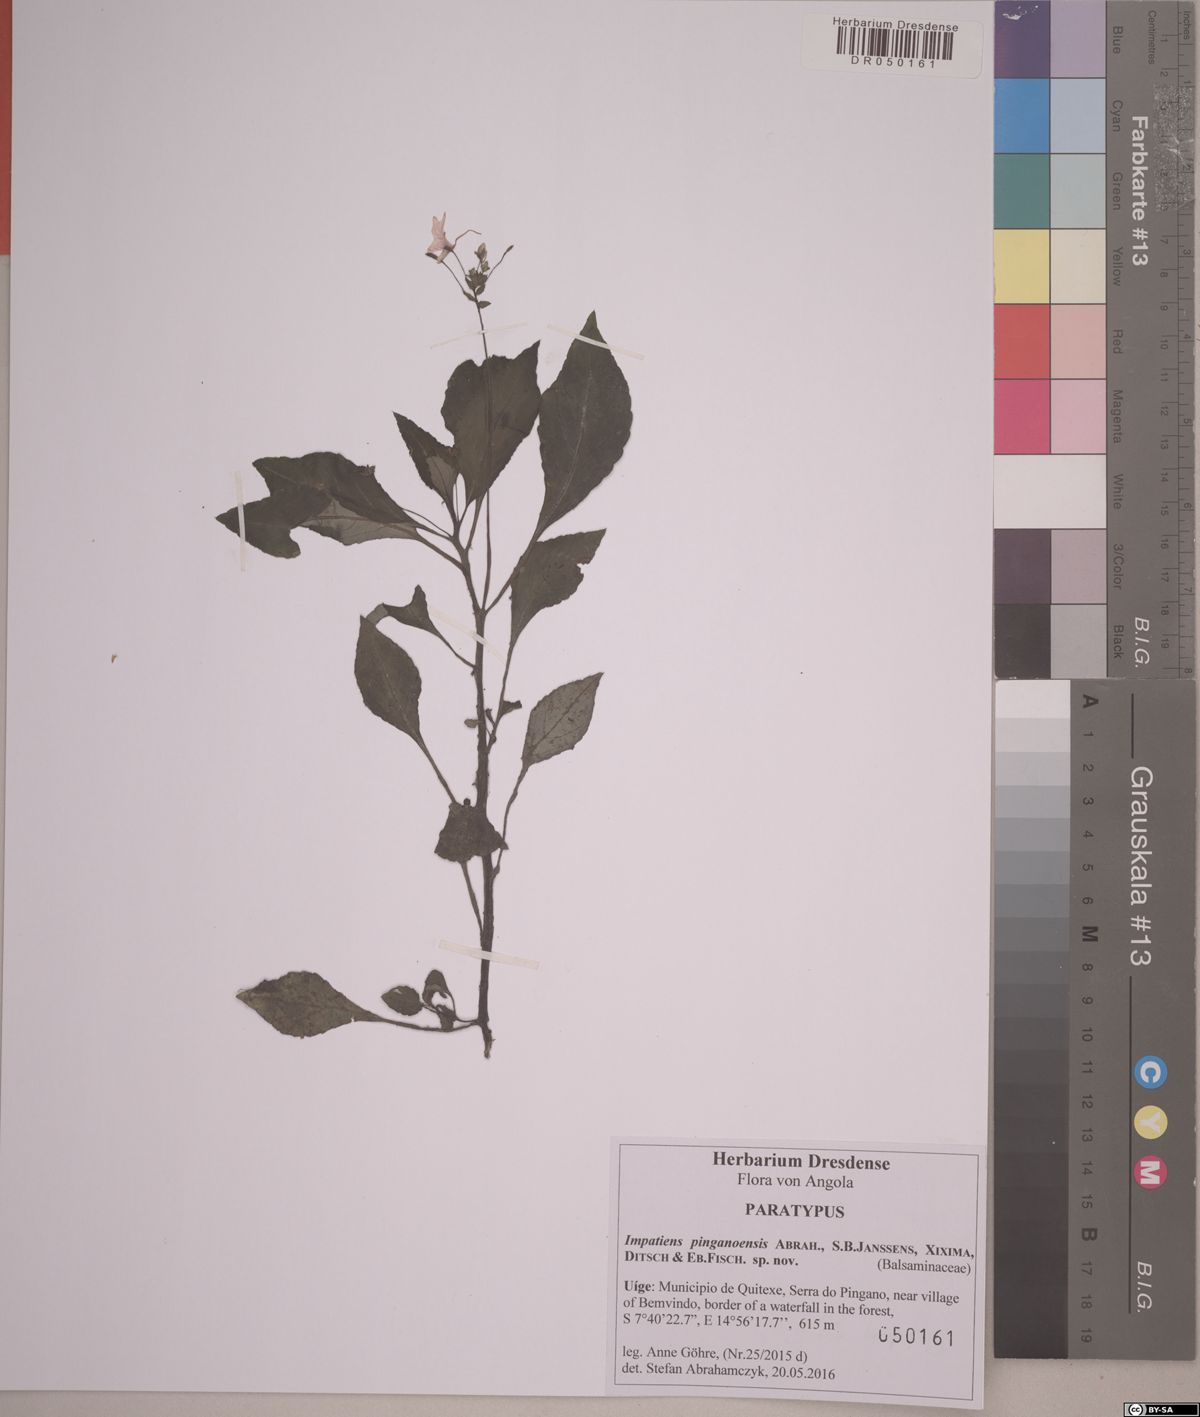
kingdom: Plantae
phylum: Tracheophyta
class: Magnoliopsida
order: Ericales
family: Balsaminaceae
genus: Impatiens
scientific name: Impatiens pinganoensis
